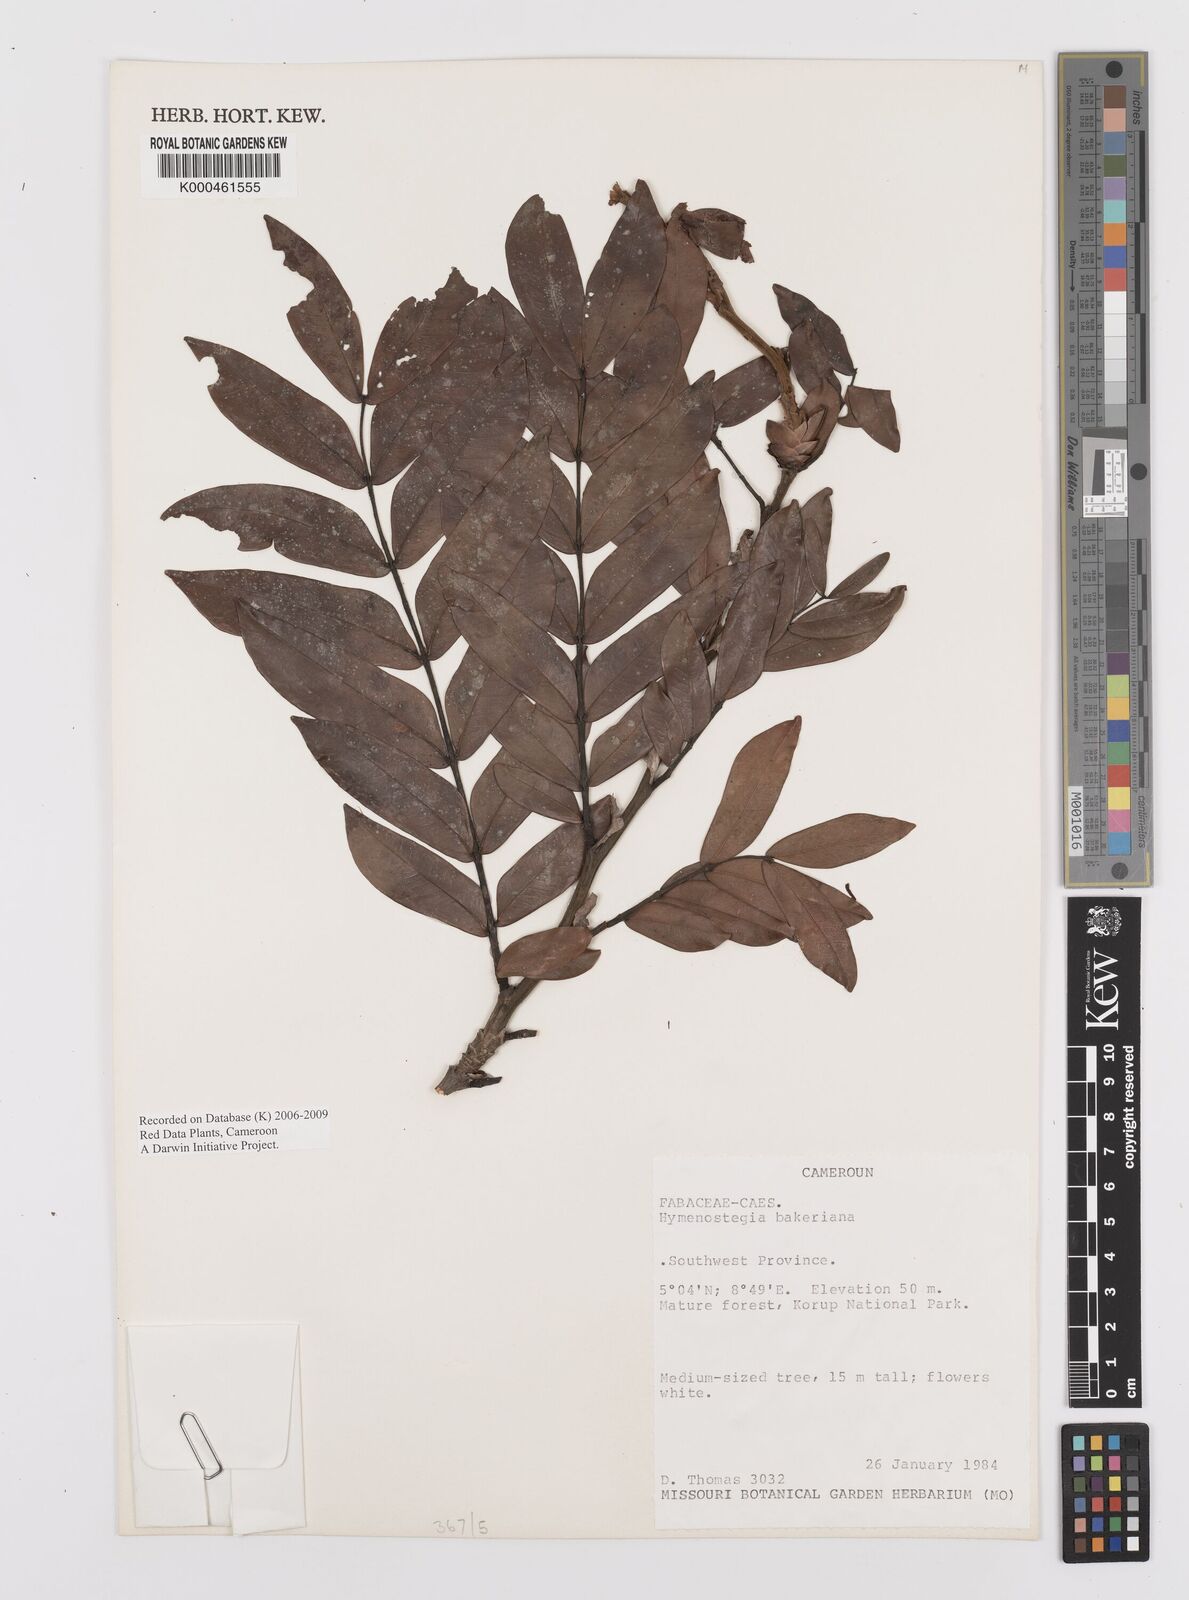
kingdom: Plantae
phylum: Tracheophyta
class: Magnoliopsida
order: Fabales
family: Fabaceae
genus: Hymenostegia
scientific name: Hymenostegia bakeriana
